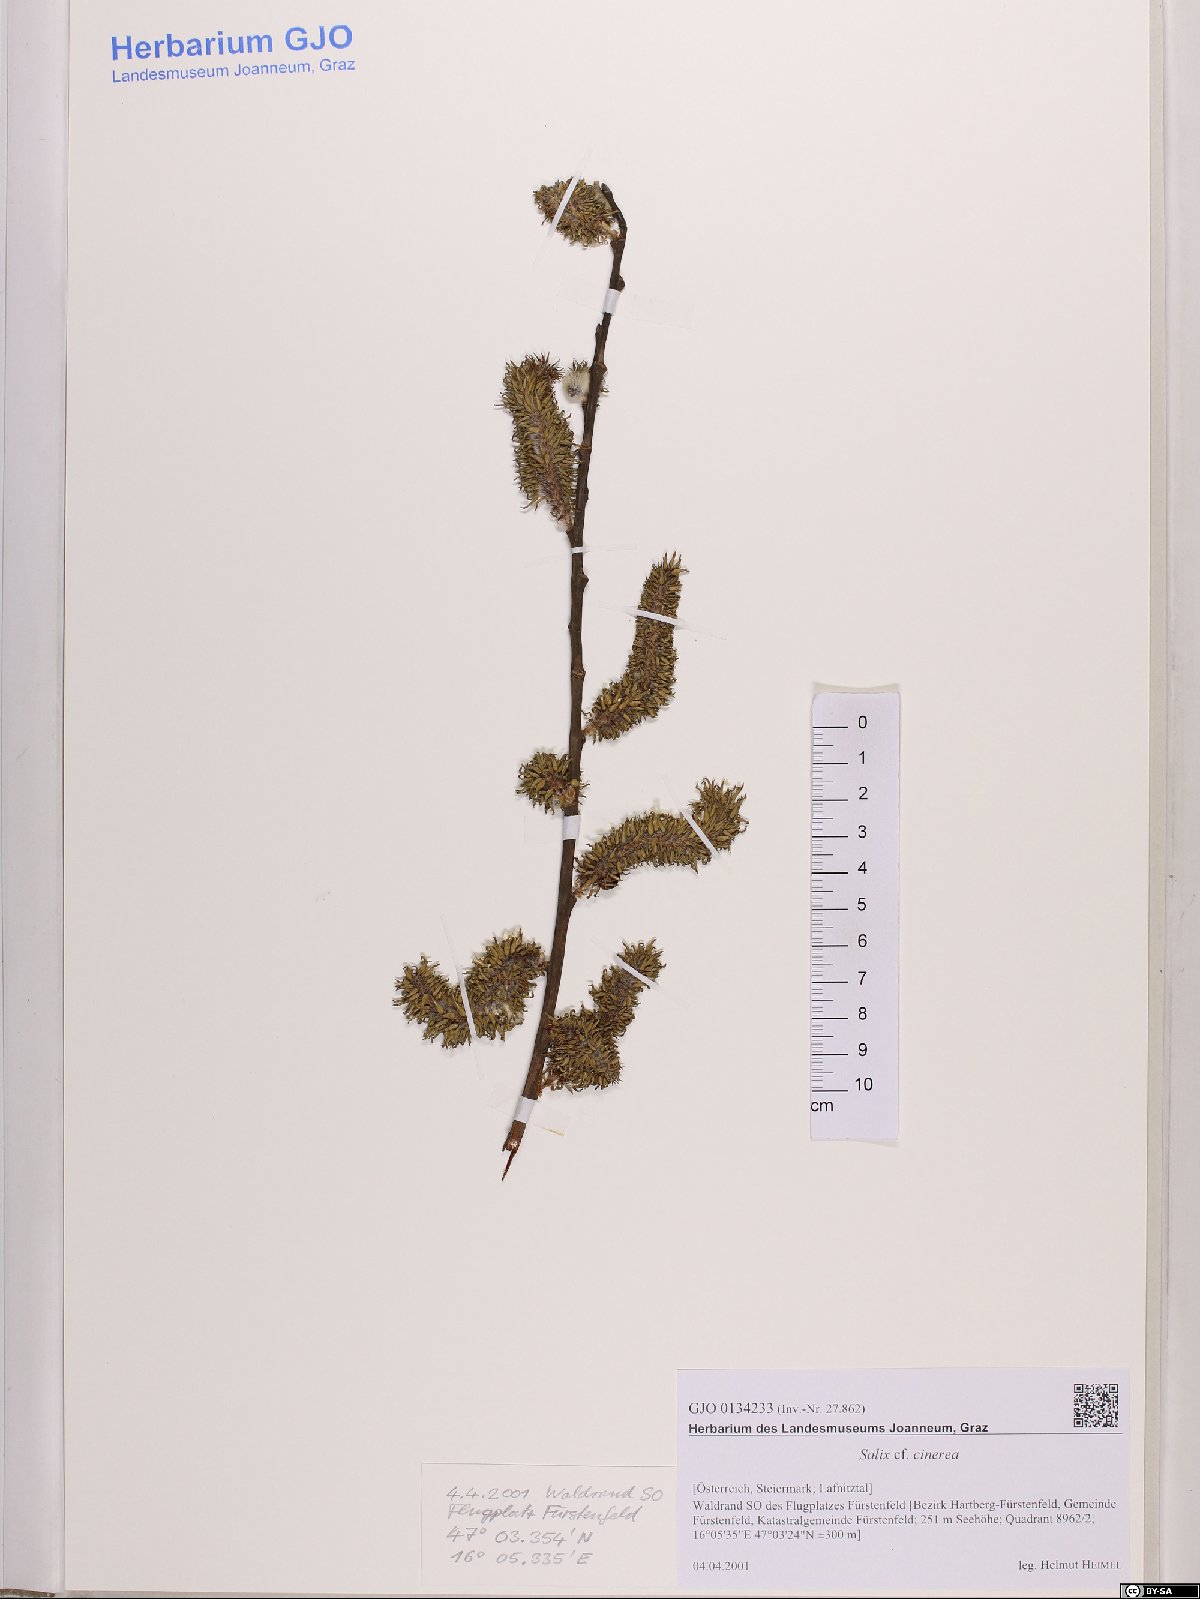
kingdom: Plantae
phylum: Tracheophyta
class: Magnoliopsida
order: Malpighiales
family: Salicaceae
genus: Salix
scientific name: Salix cinerea
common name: Common sallow
